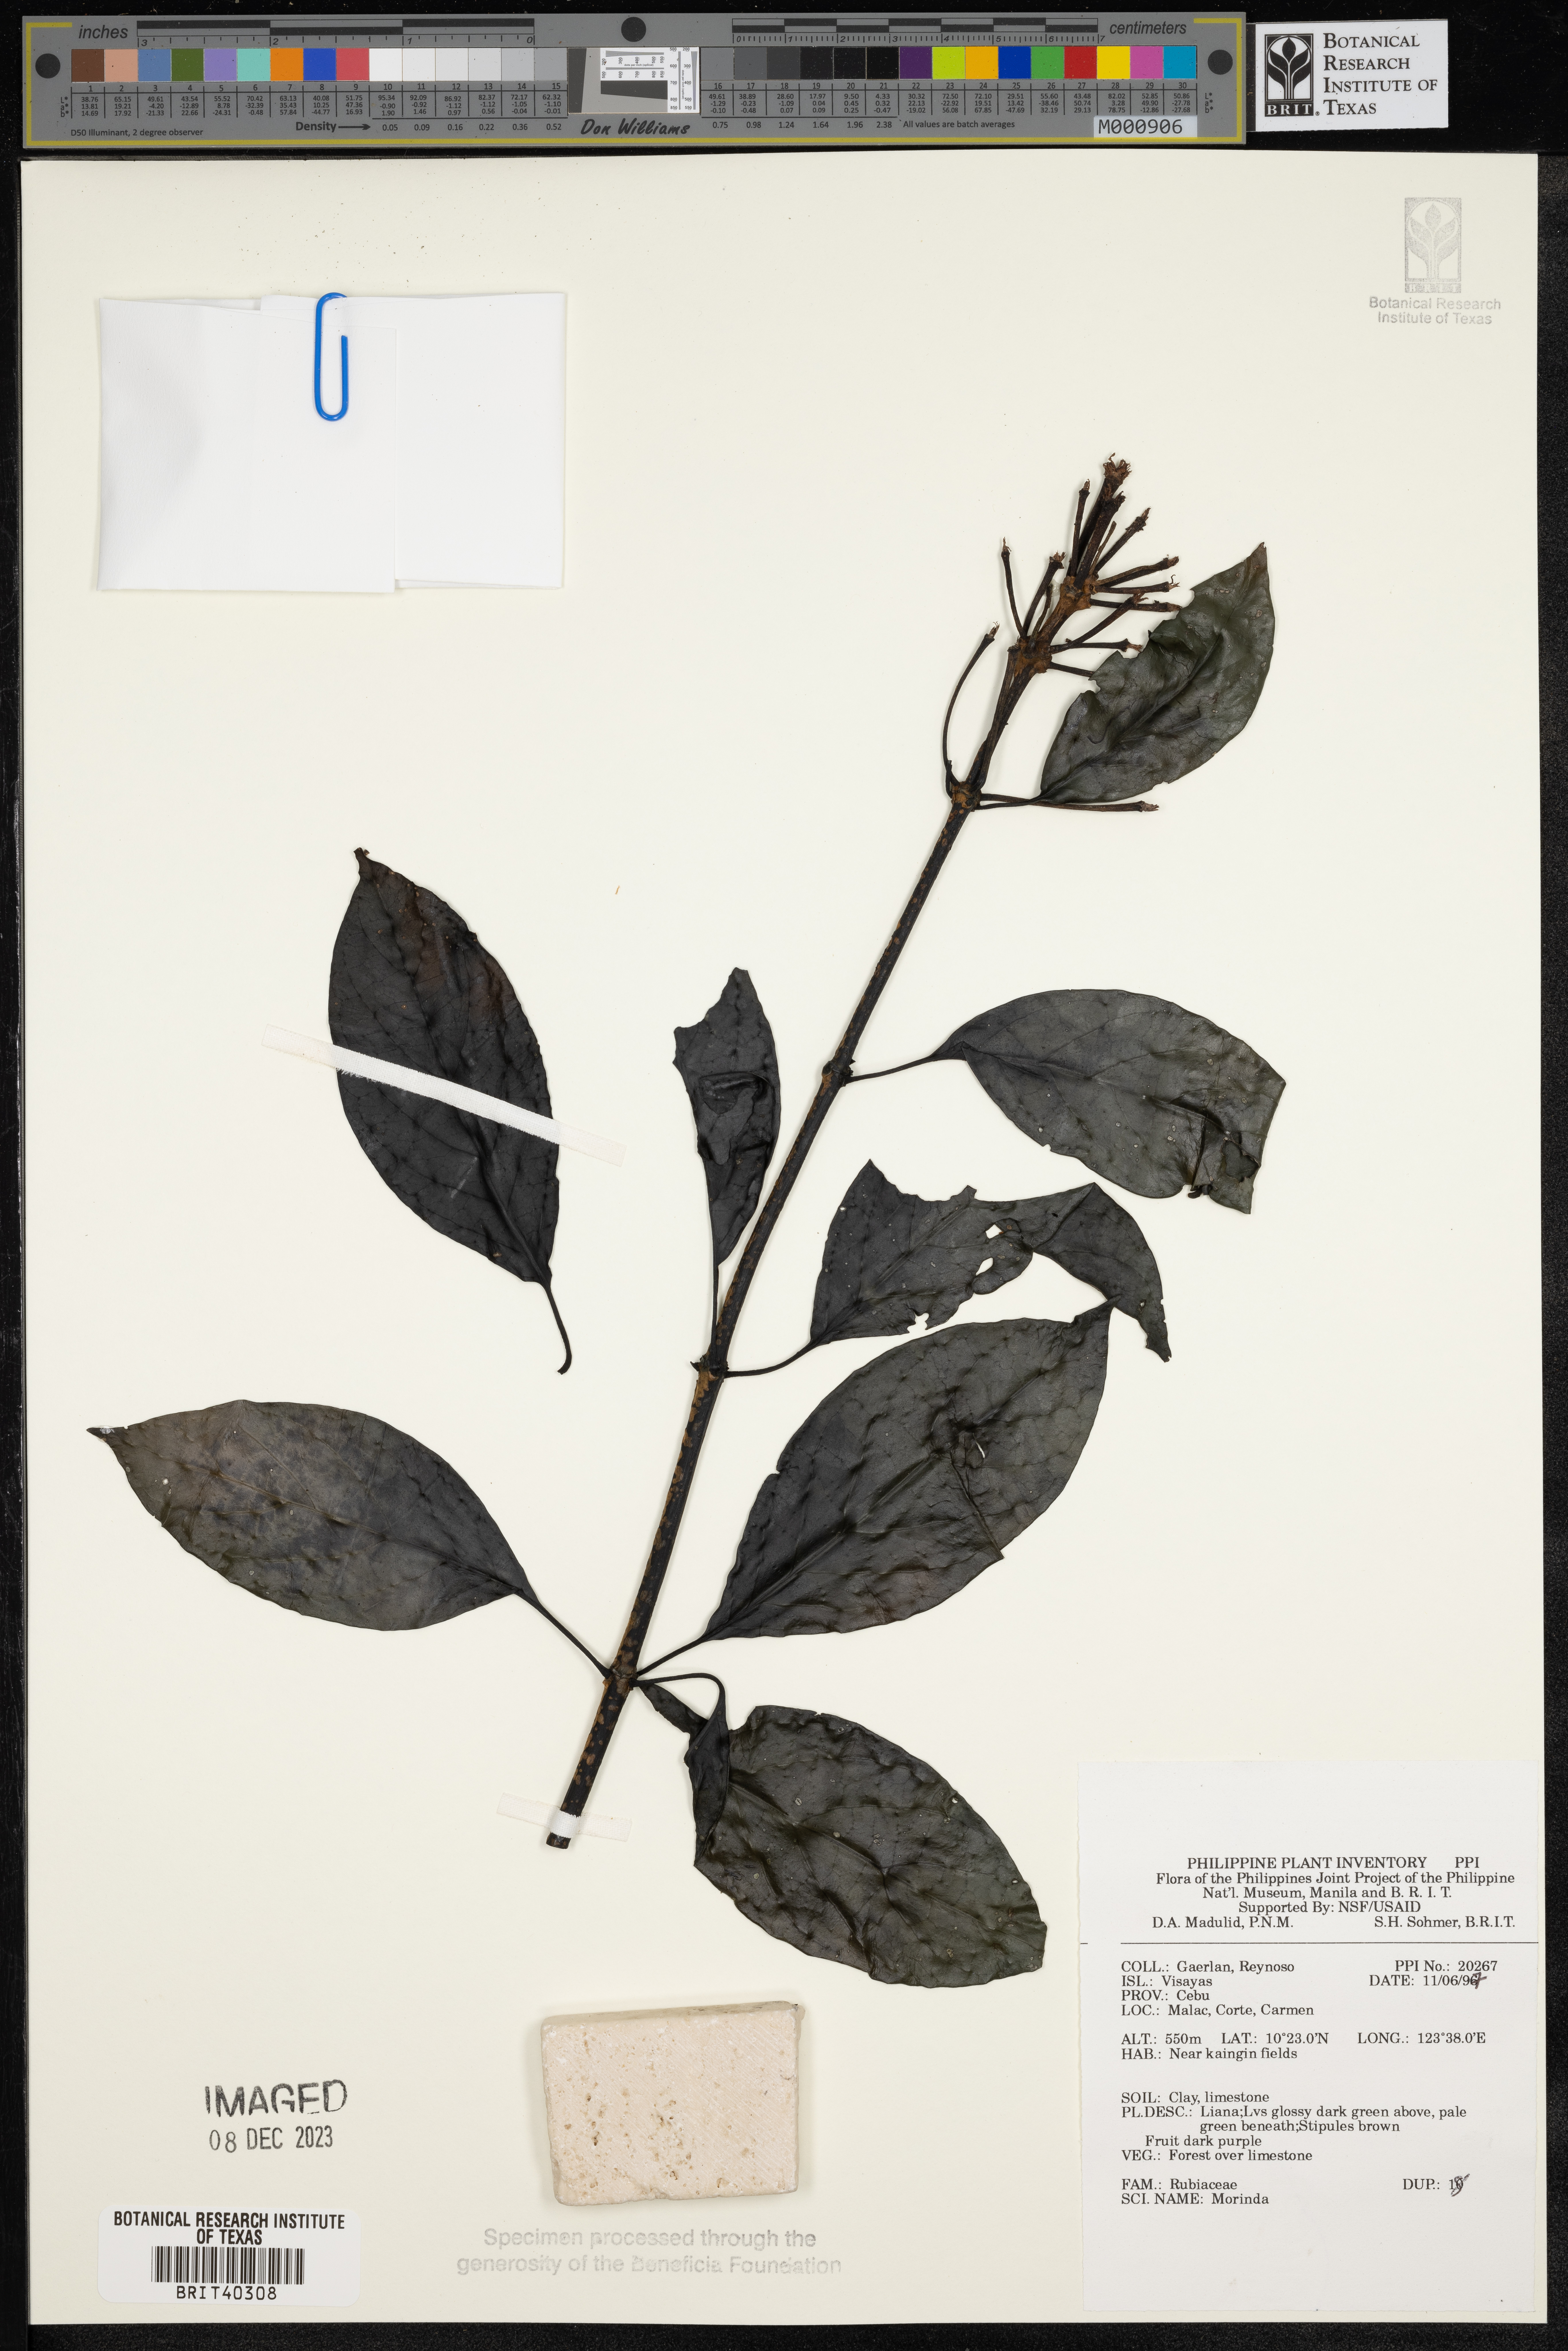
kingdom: Plantae
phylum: Tracheophyta
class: Magnoliopsida
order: Gentianales
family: Rubiaceae
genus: Morinda
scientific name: Morinda
